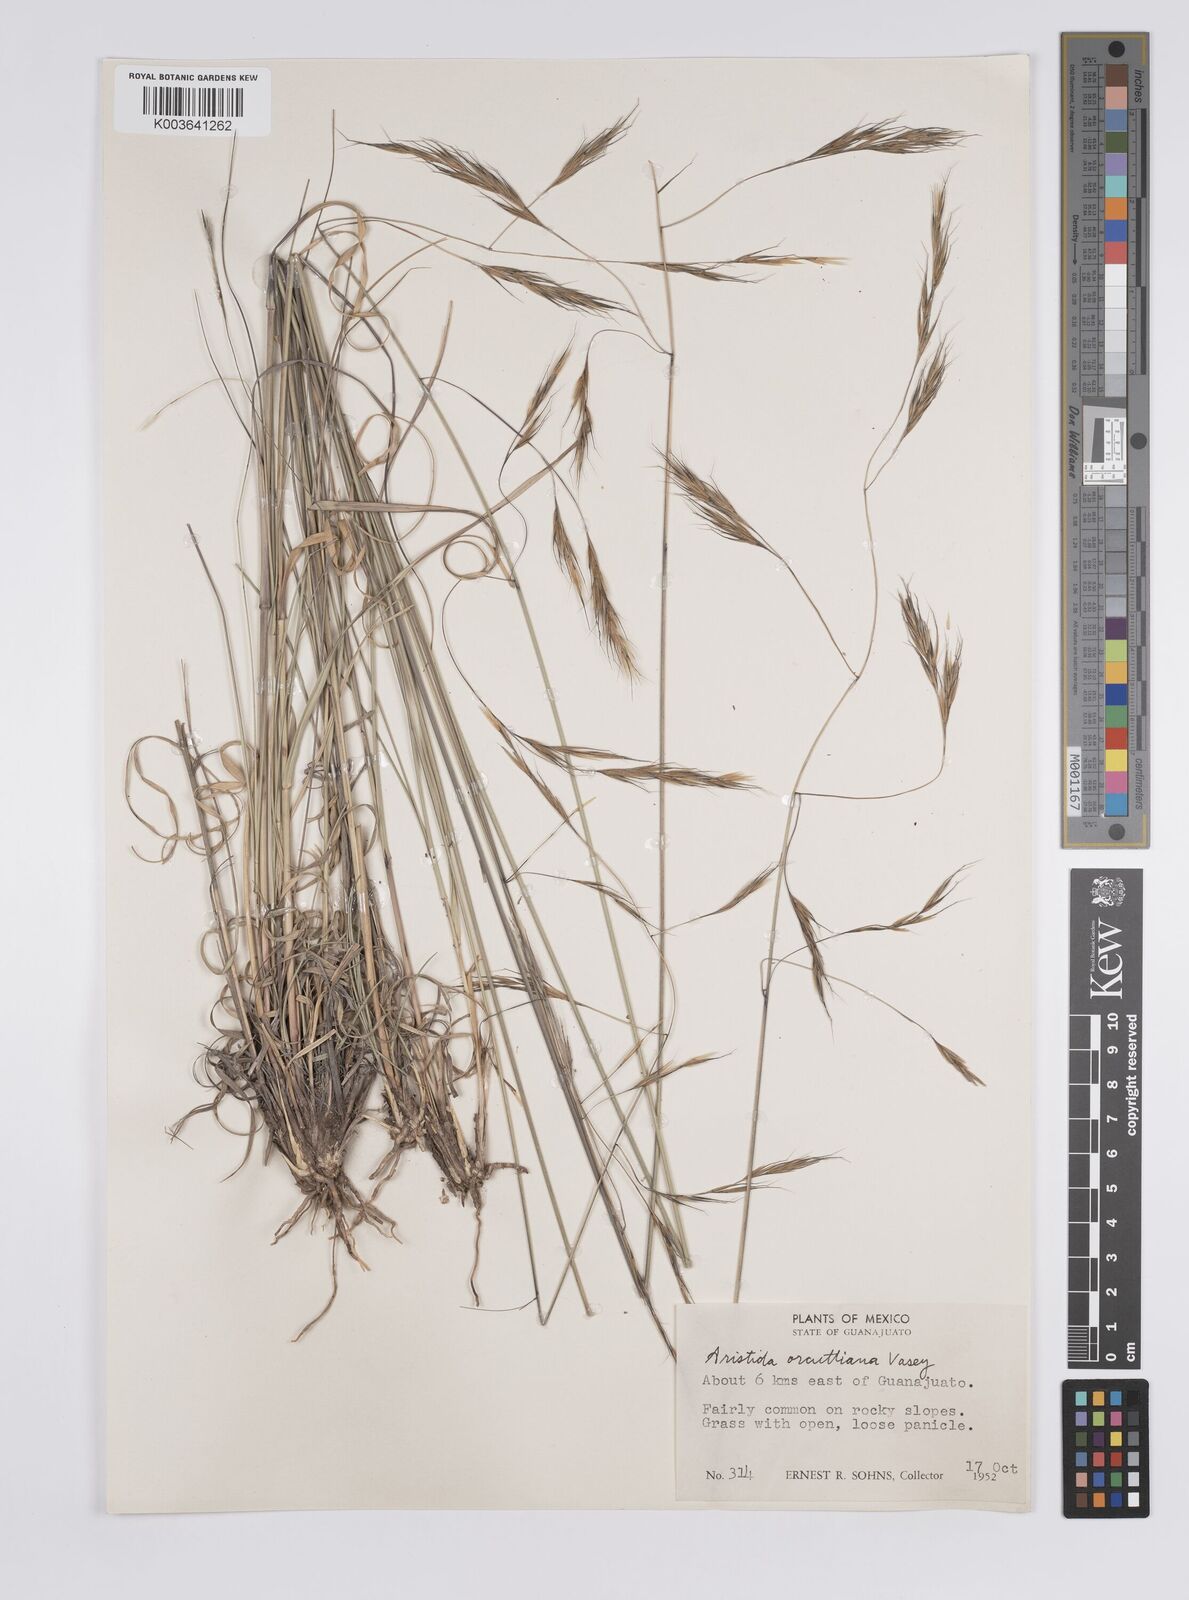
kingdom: Plantae
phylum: Tracheophyta
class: Liliopsida
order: Poales
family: Poaceae
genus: Aristida
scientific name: Aristida schiedeana
